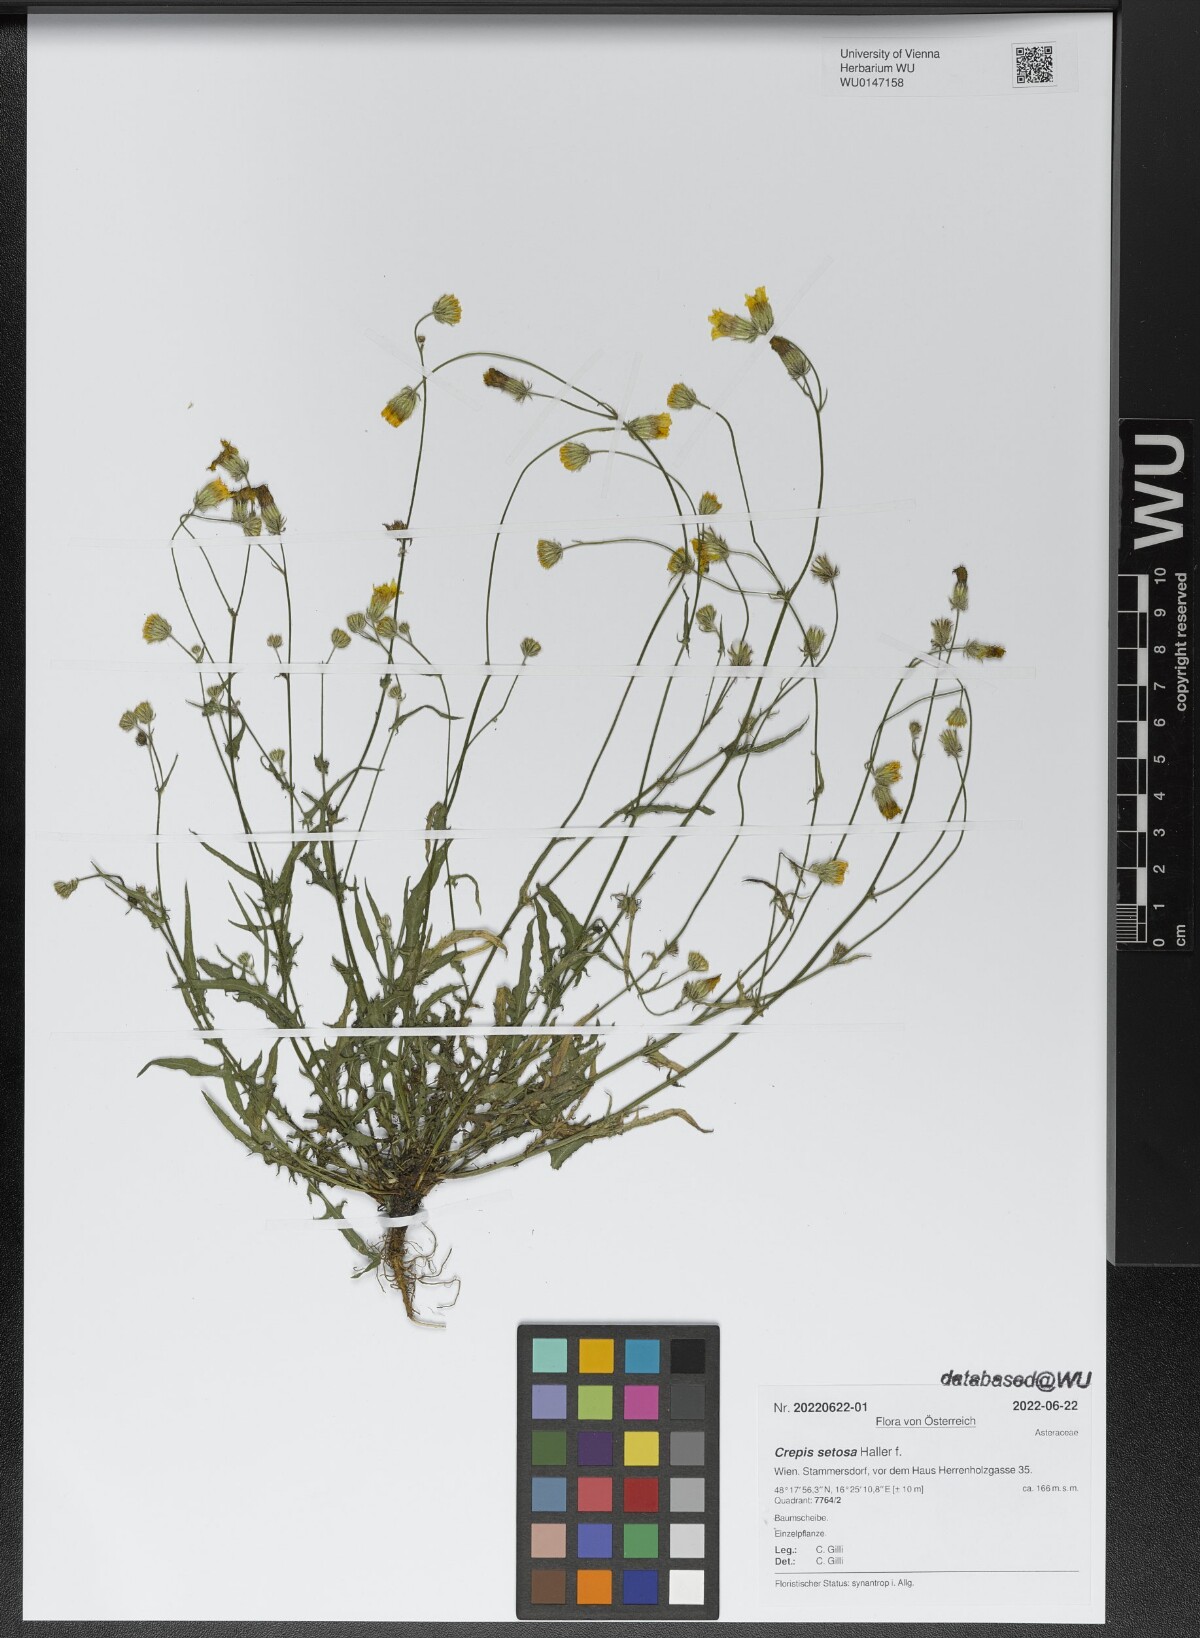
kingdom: Plantae
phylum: Tracheophyta
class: Magnoliopsida
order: Asterales
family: Asteraceae
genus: Crepis
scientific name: Crepis setosa
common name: Bristly hawk's-beard
